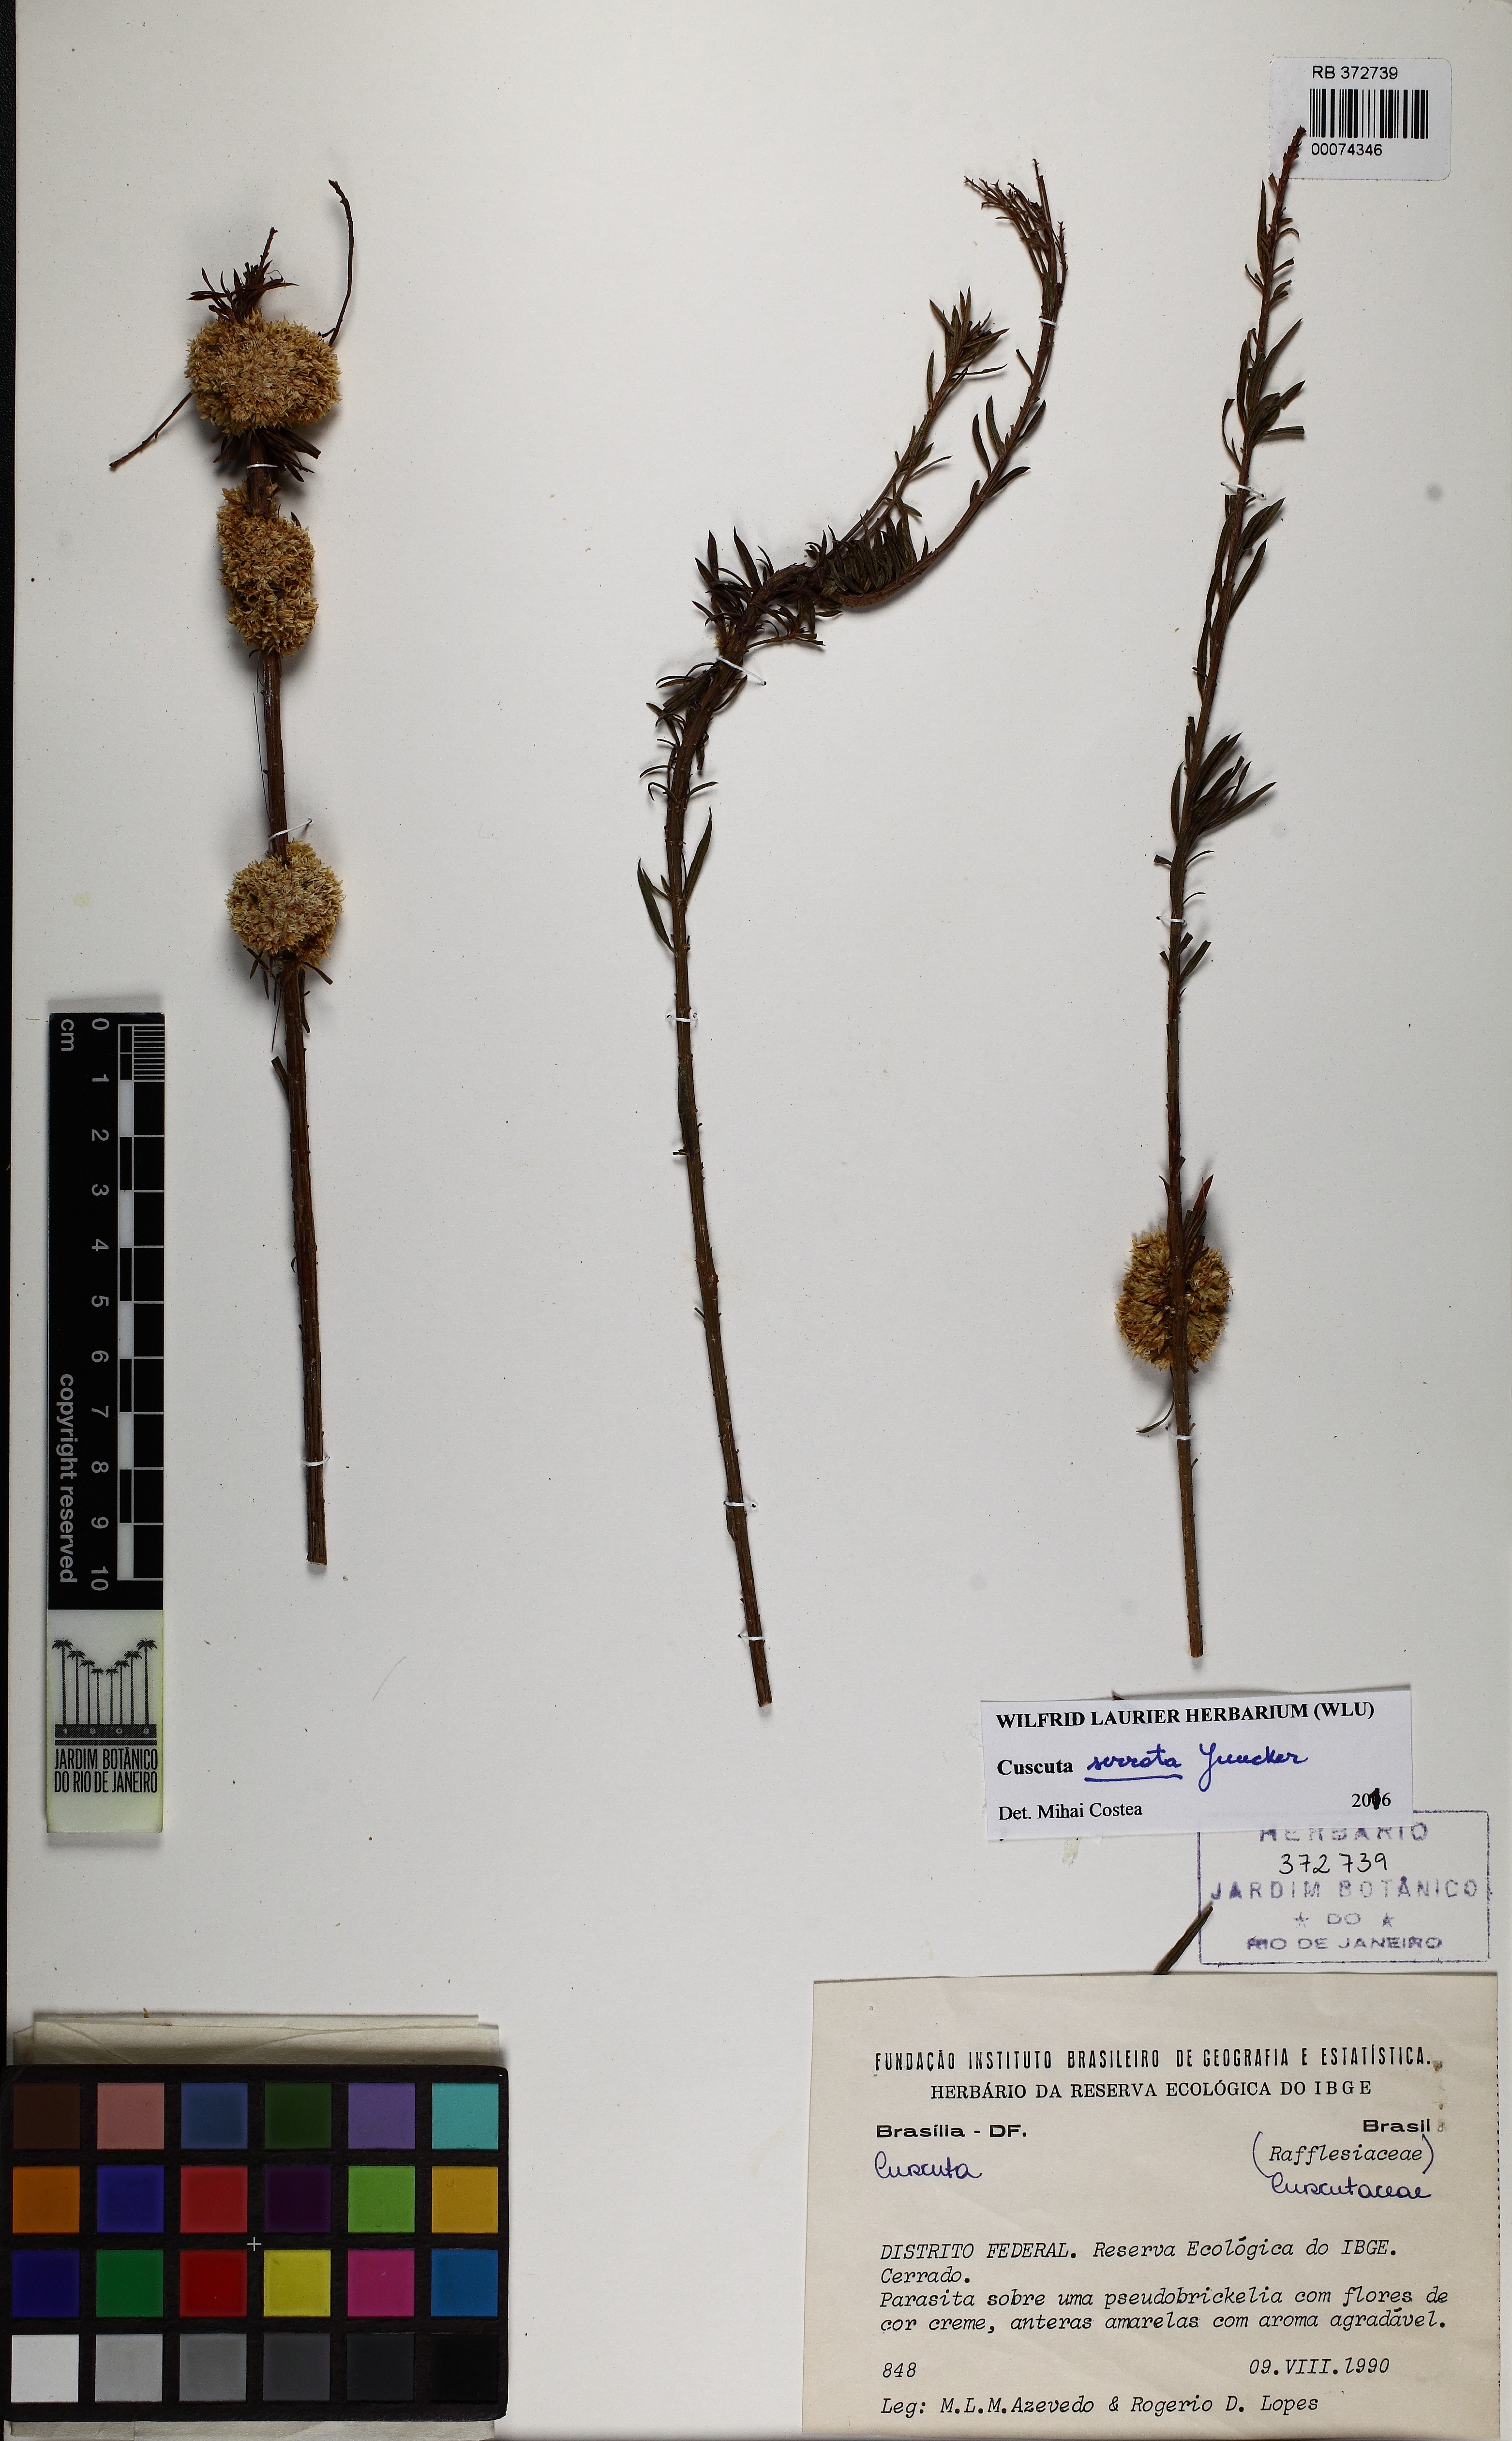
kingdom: Plantae
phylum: Tracheophyta
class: Magnoliopsida
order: Solanales
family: Convolvulaceae
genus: Cuscuta
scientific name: Cuscuta serrata
